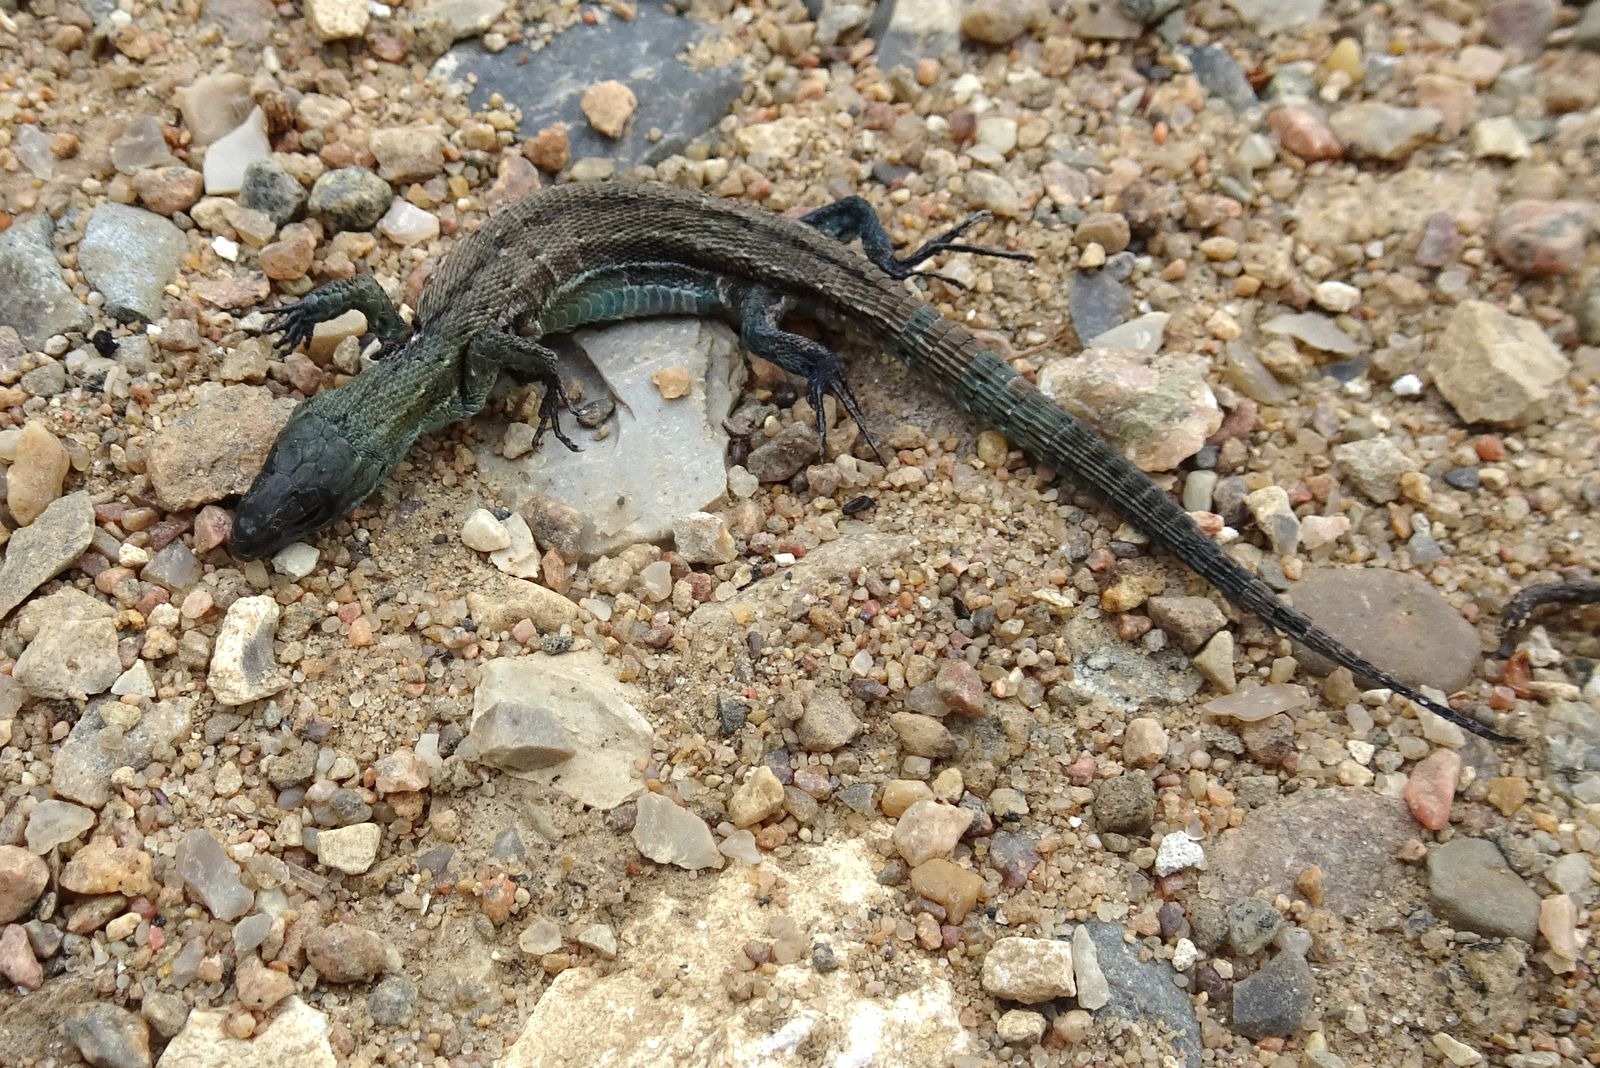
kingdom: Animalia
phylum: Chordata
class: Squamata
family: Lacertidae
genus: Zootoca
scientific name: Zootoca vivipara
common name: Skovfirben
